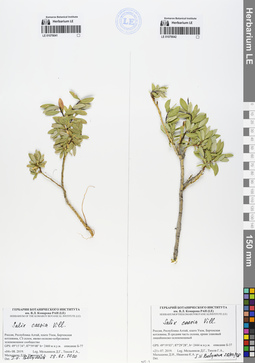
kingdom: Plantae
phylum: Tracheophyta
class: Magnoliopsida
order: Malpighiales
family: Salicaceae
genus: Salix
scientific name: Salix caesia
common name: Blue willow
